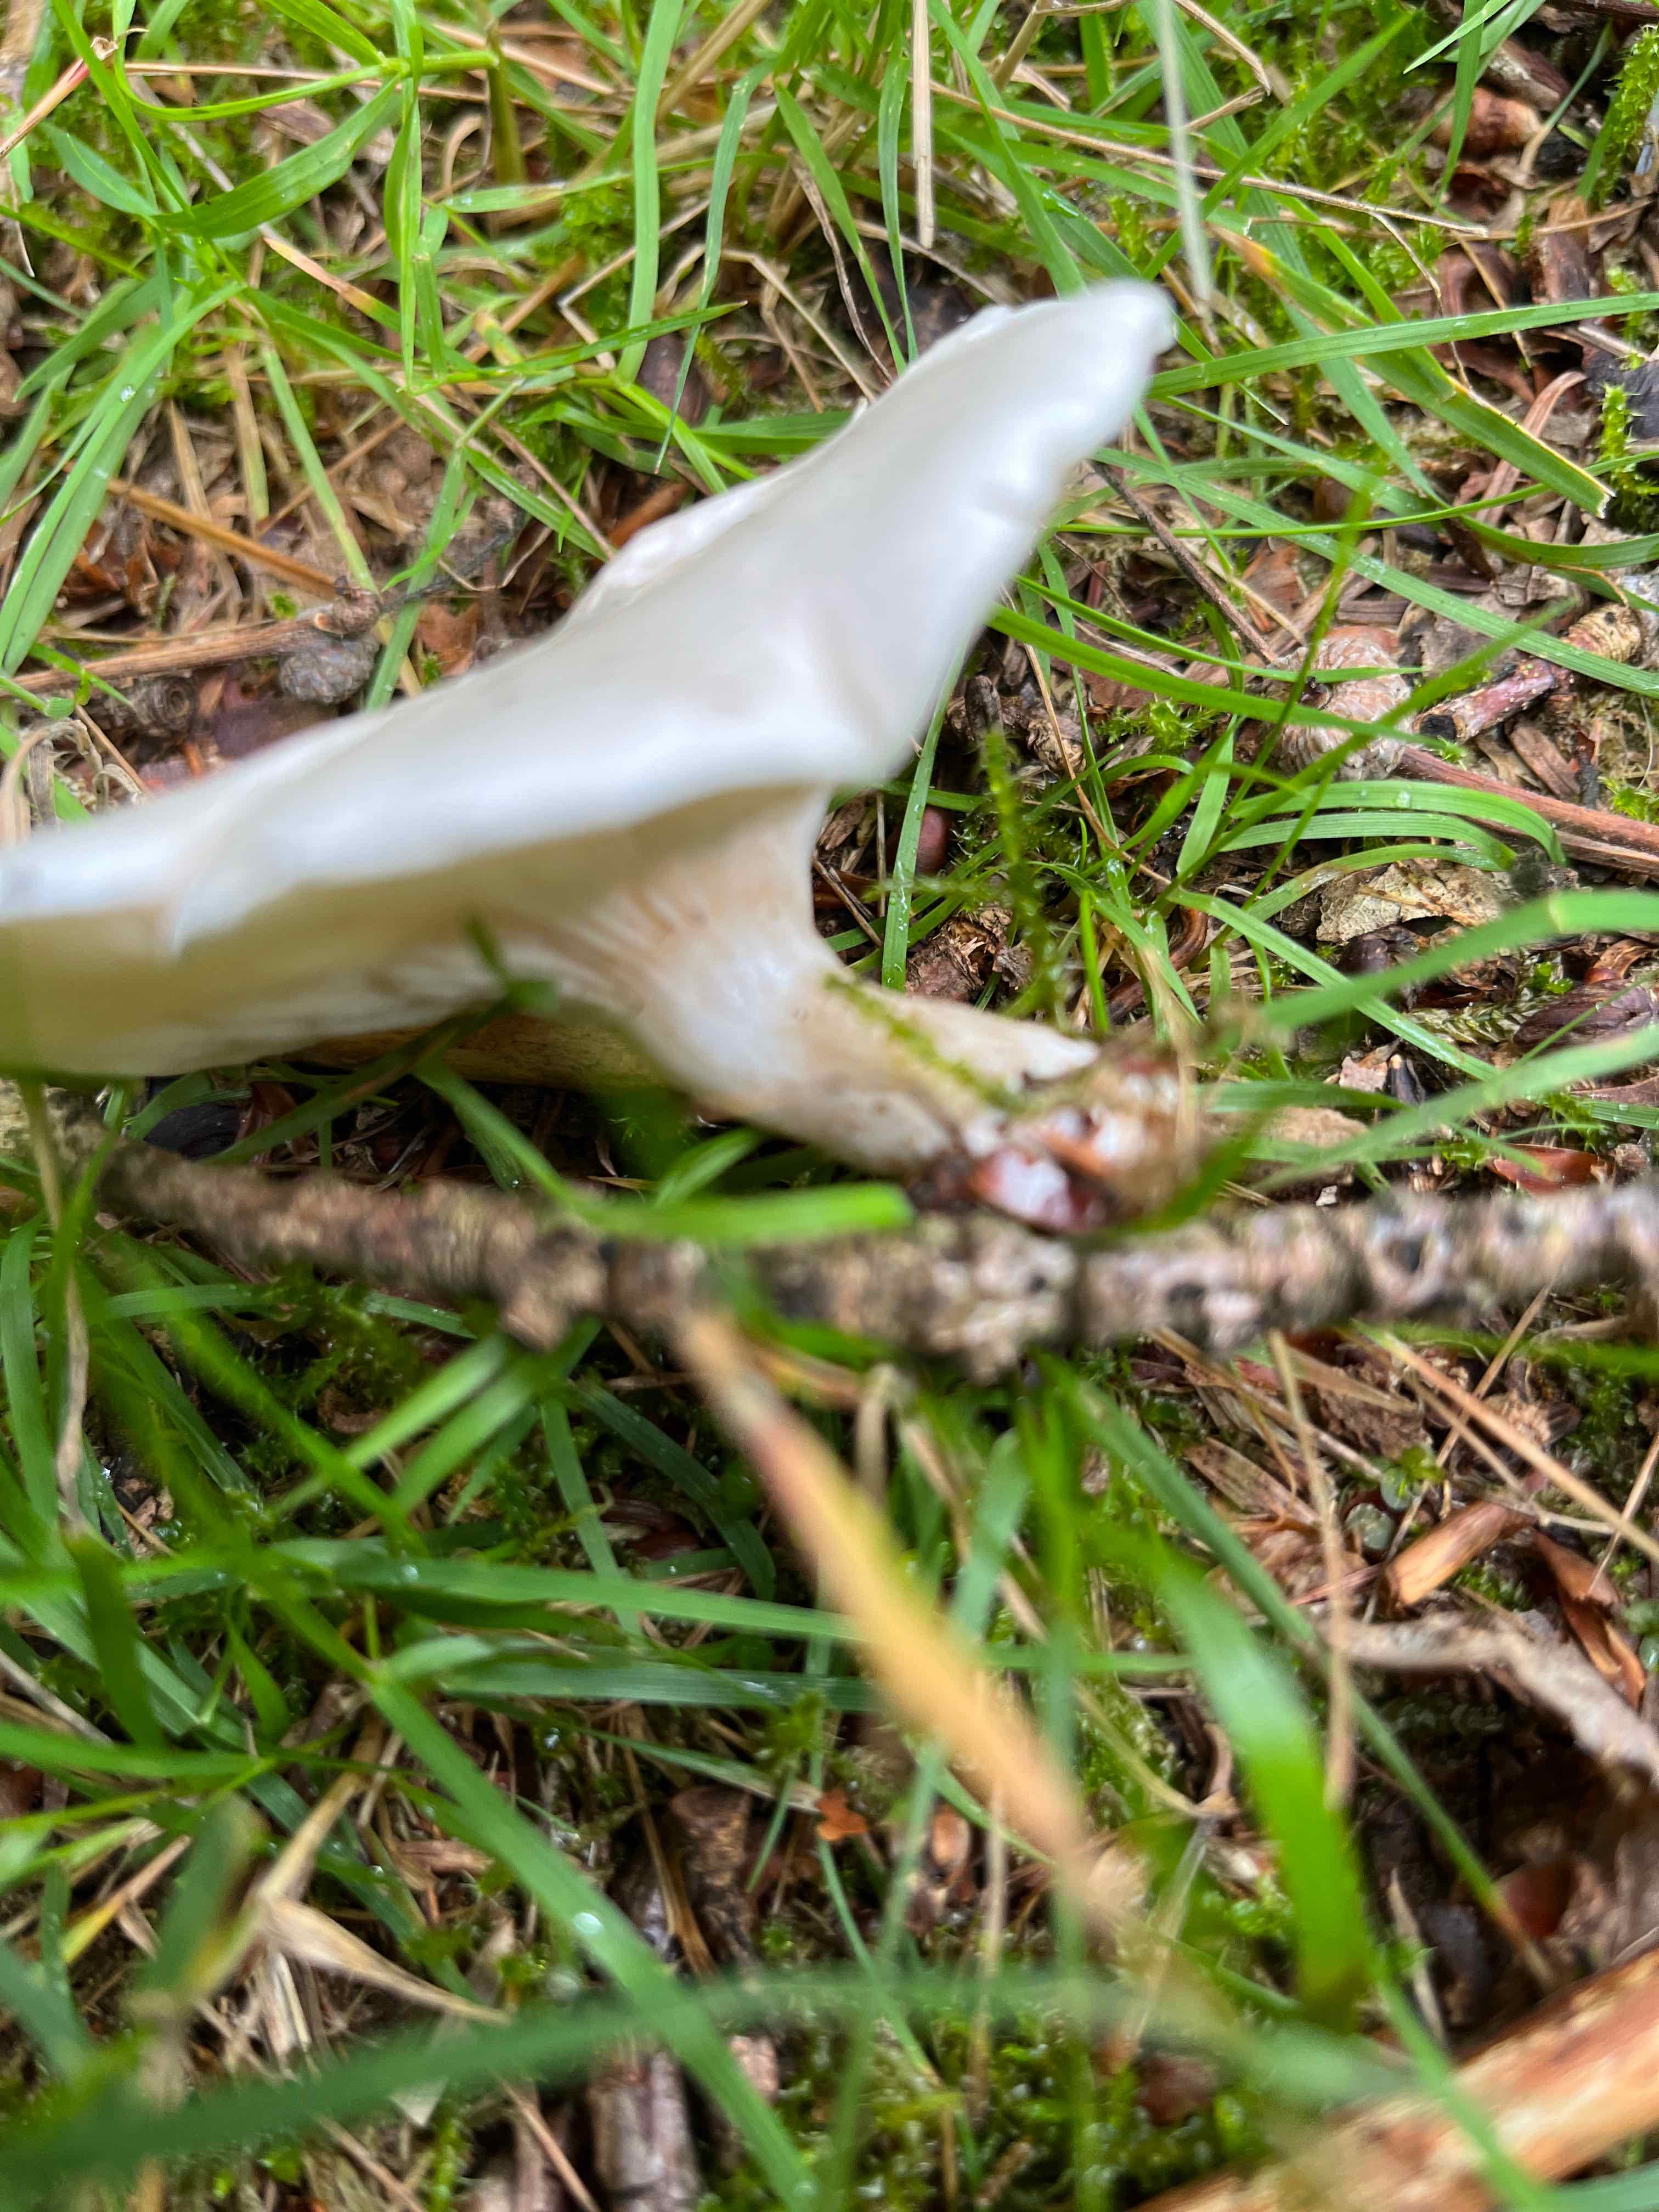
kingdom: Fungi
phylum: Basidiomycota
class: Agaricomycetes
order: Agaricales
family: Entolomataceae
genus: Clitopilus
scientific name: Clitopilus prunulus
